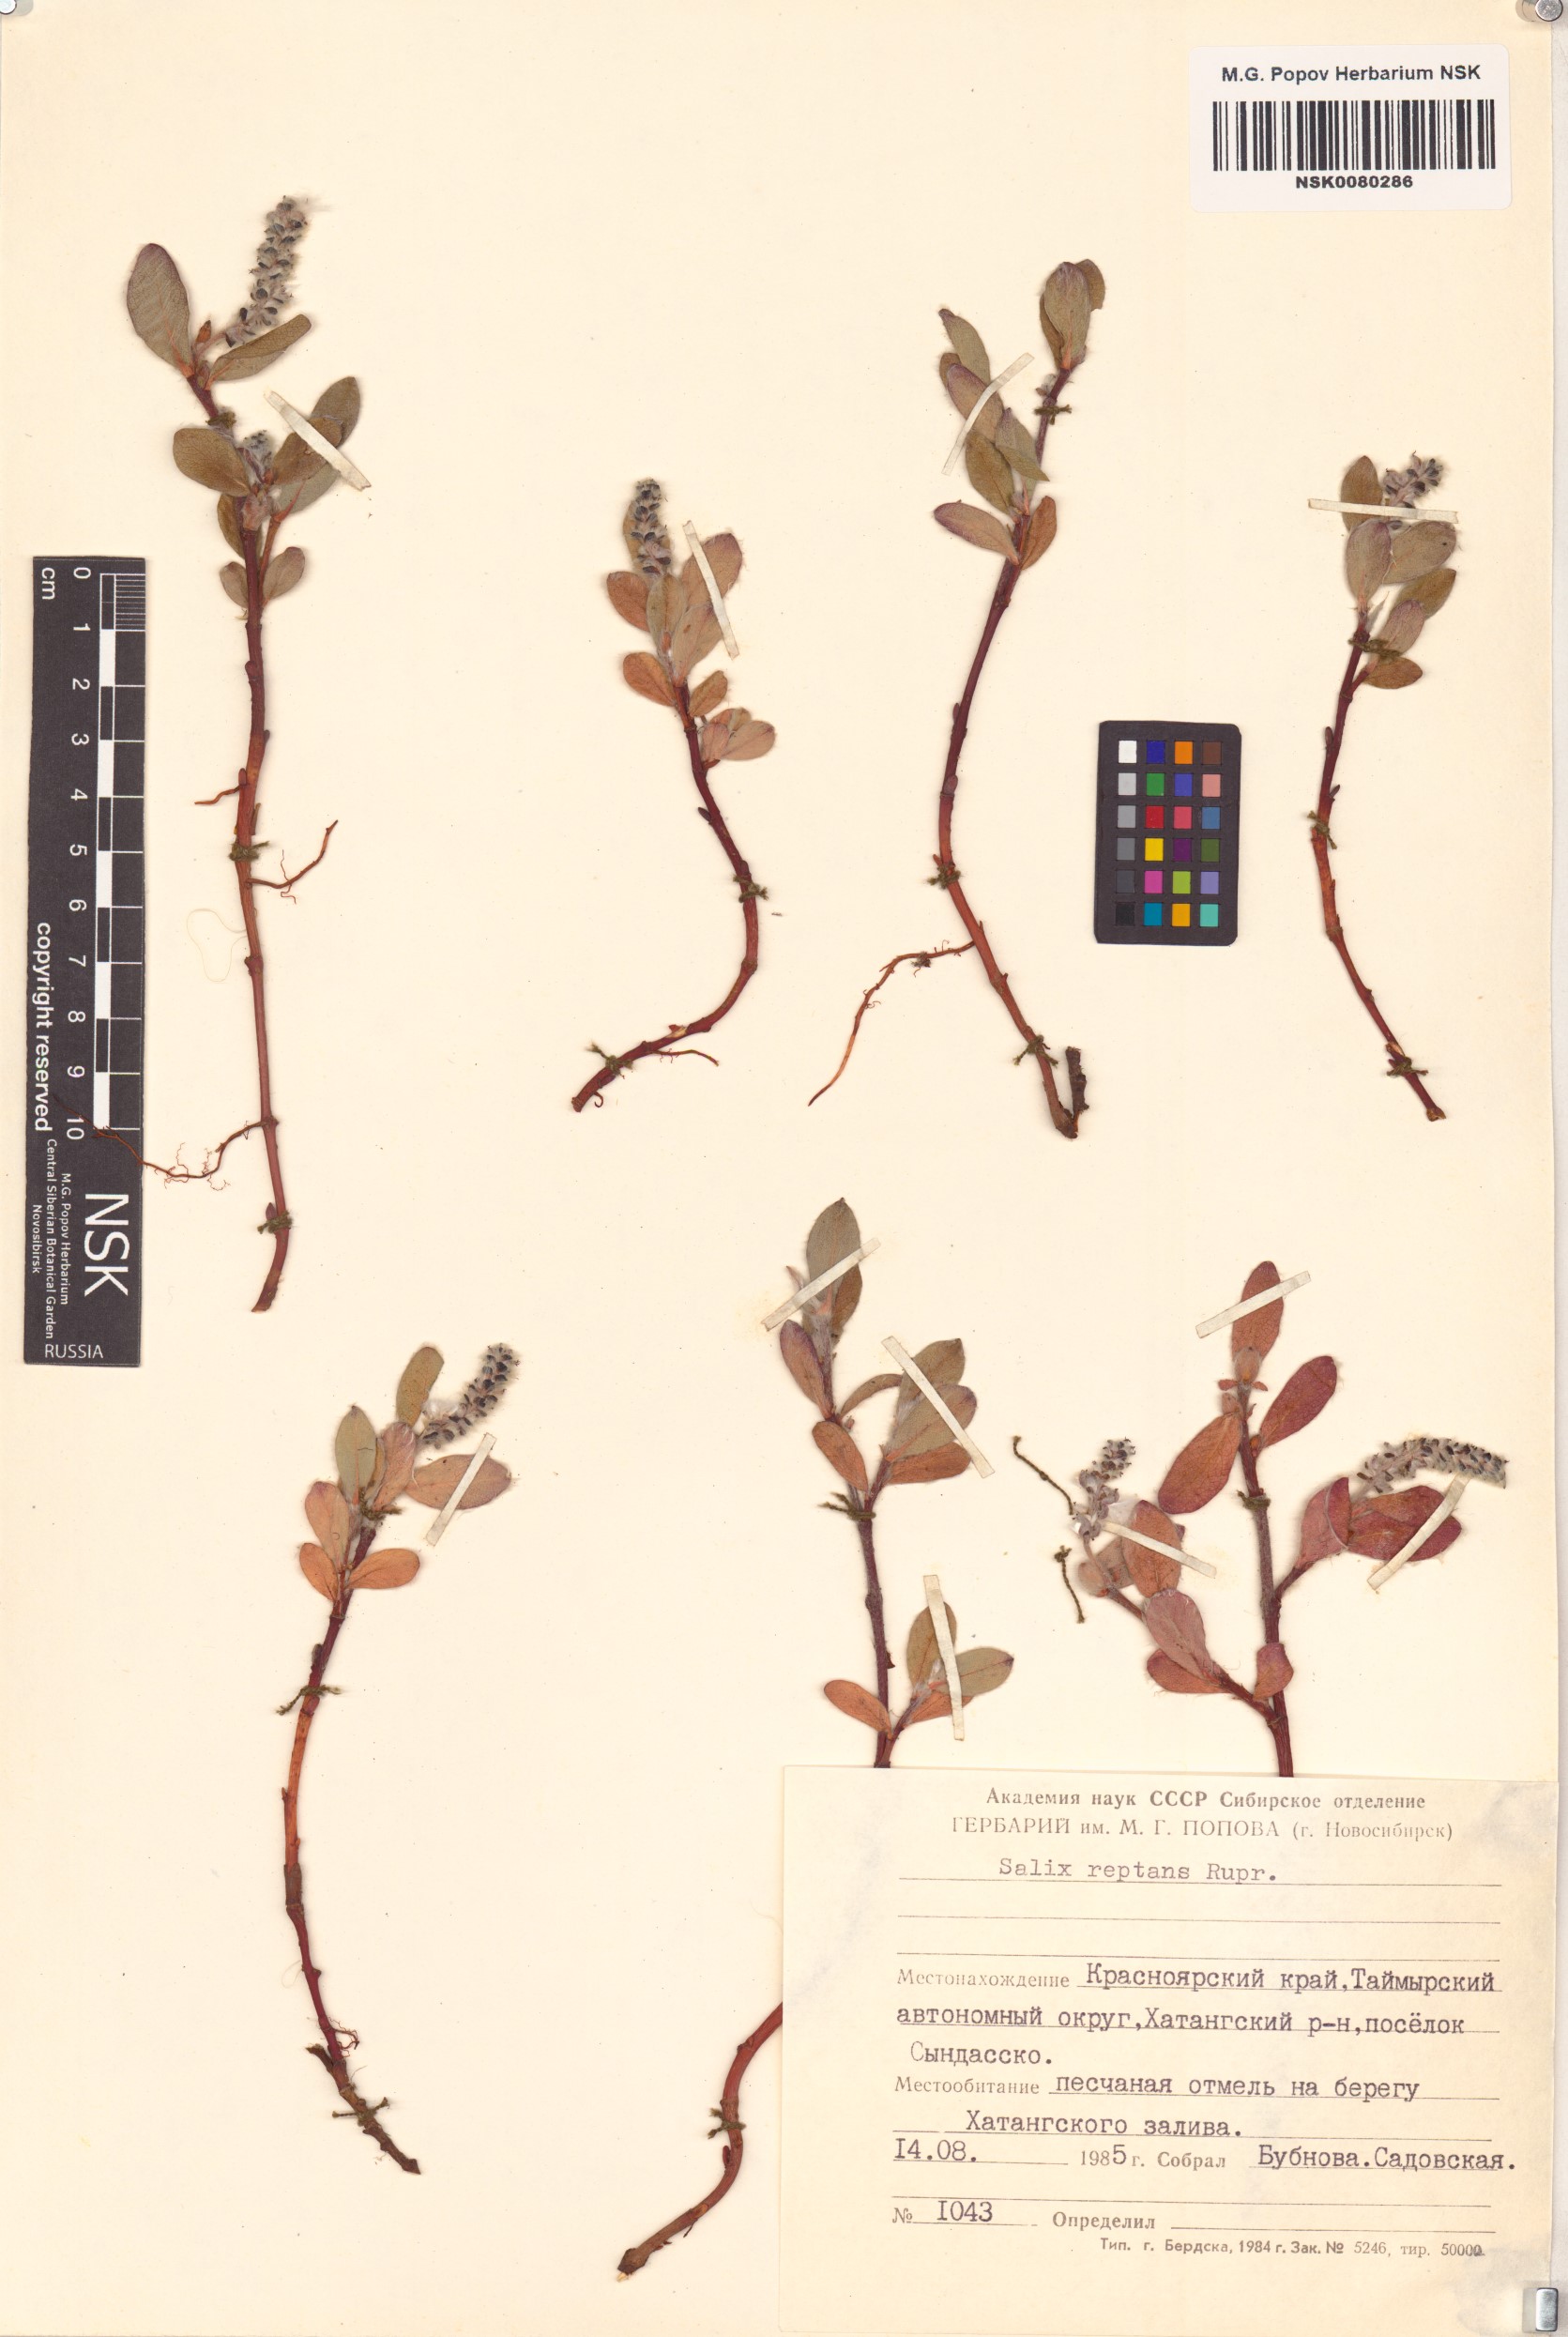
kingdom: Plantae
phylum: Tracheophyta
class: Magnoliopsida
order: Malpighiales
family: Salicaceae
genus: Salix
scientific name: Salix reptans
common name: Arctic creeping willow
